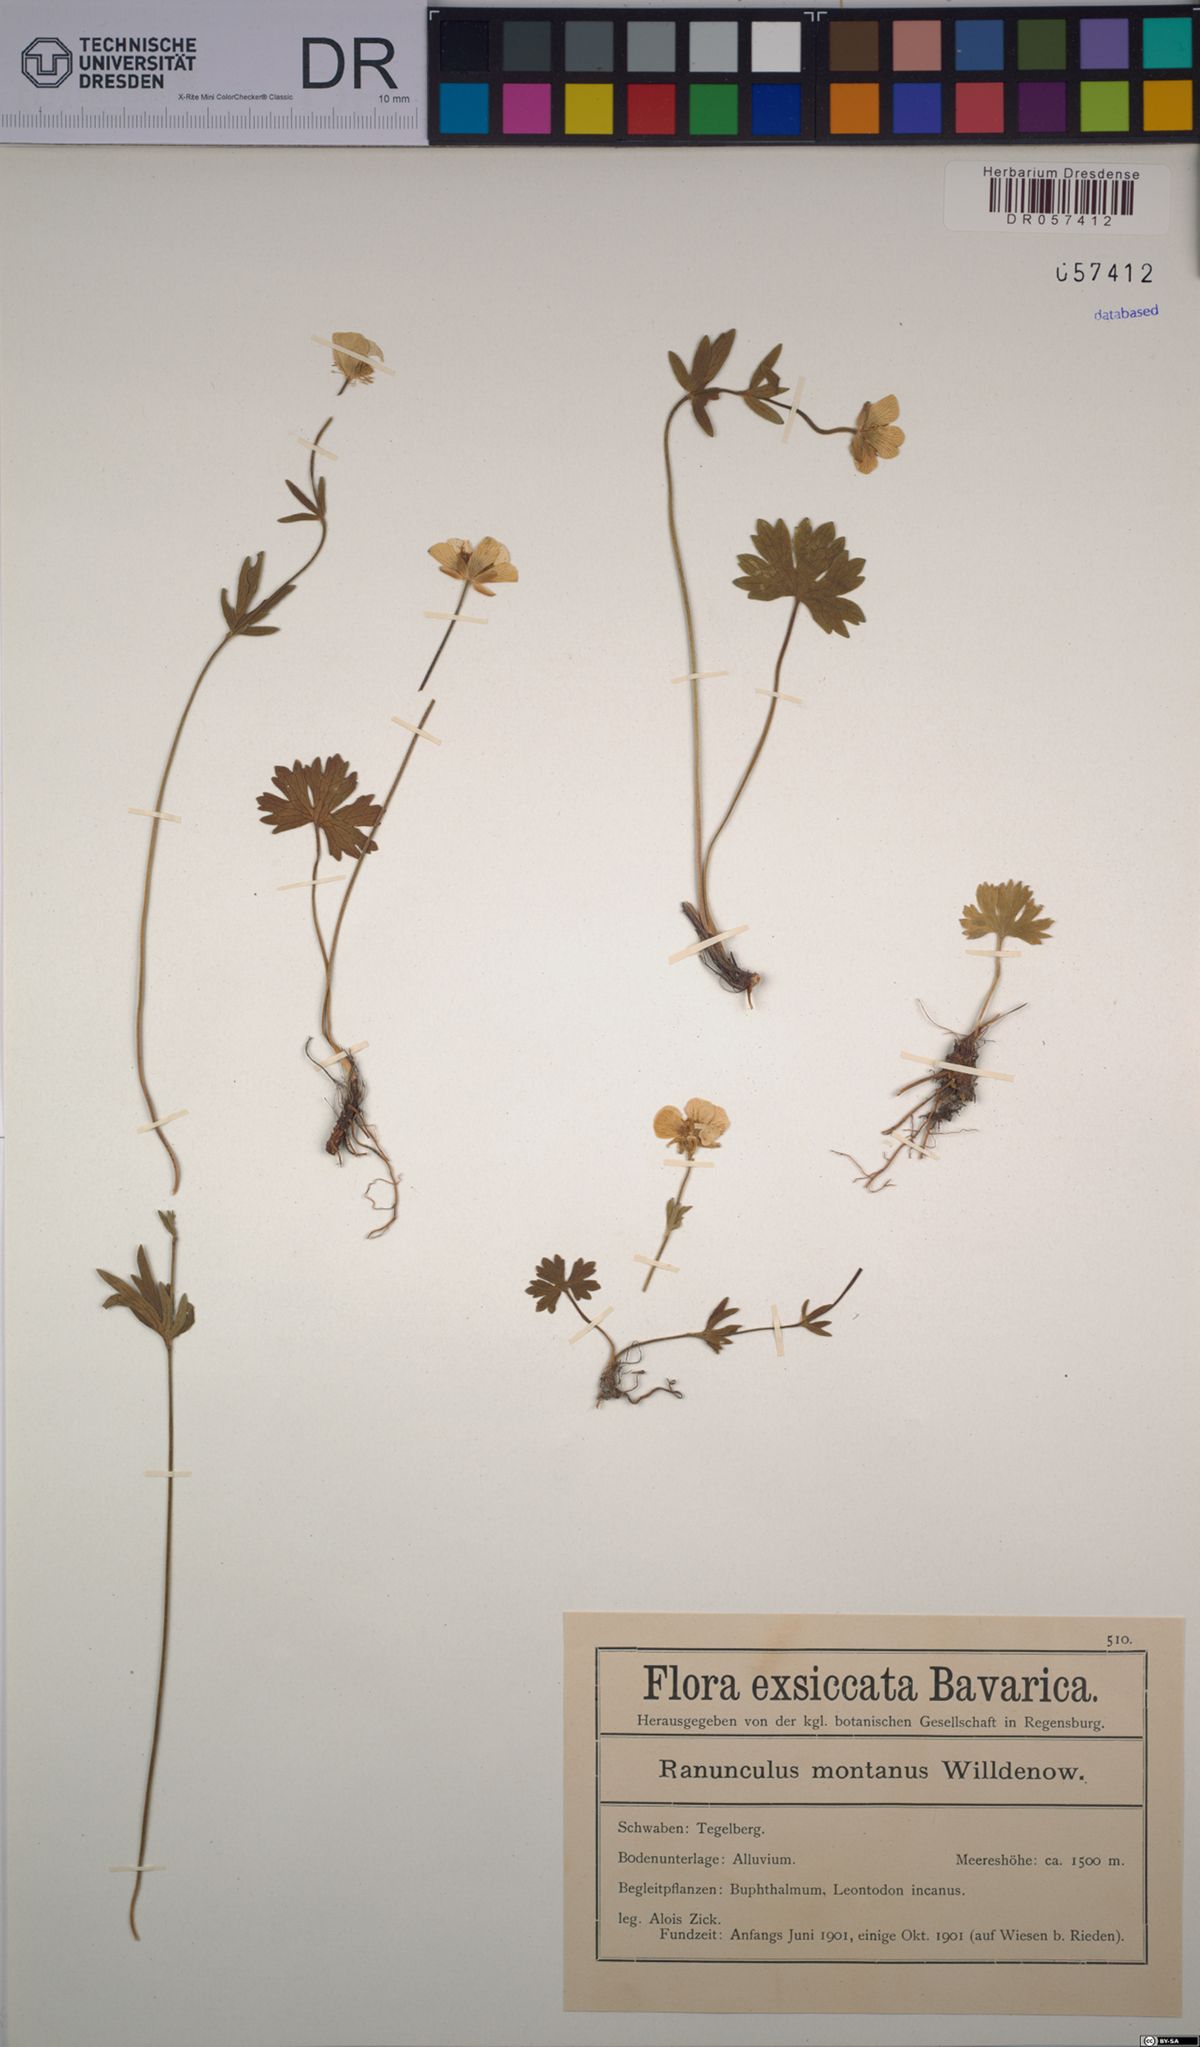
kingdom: Plantae
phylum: Tracheophyta
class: Magnoliopsida
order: Ranunculales
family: Ranunculaceae
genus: Ranunculus
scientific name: Ranunculus montanus
